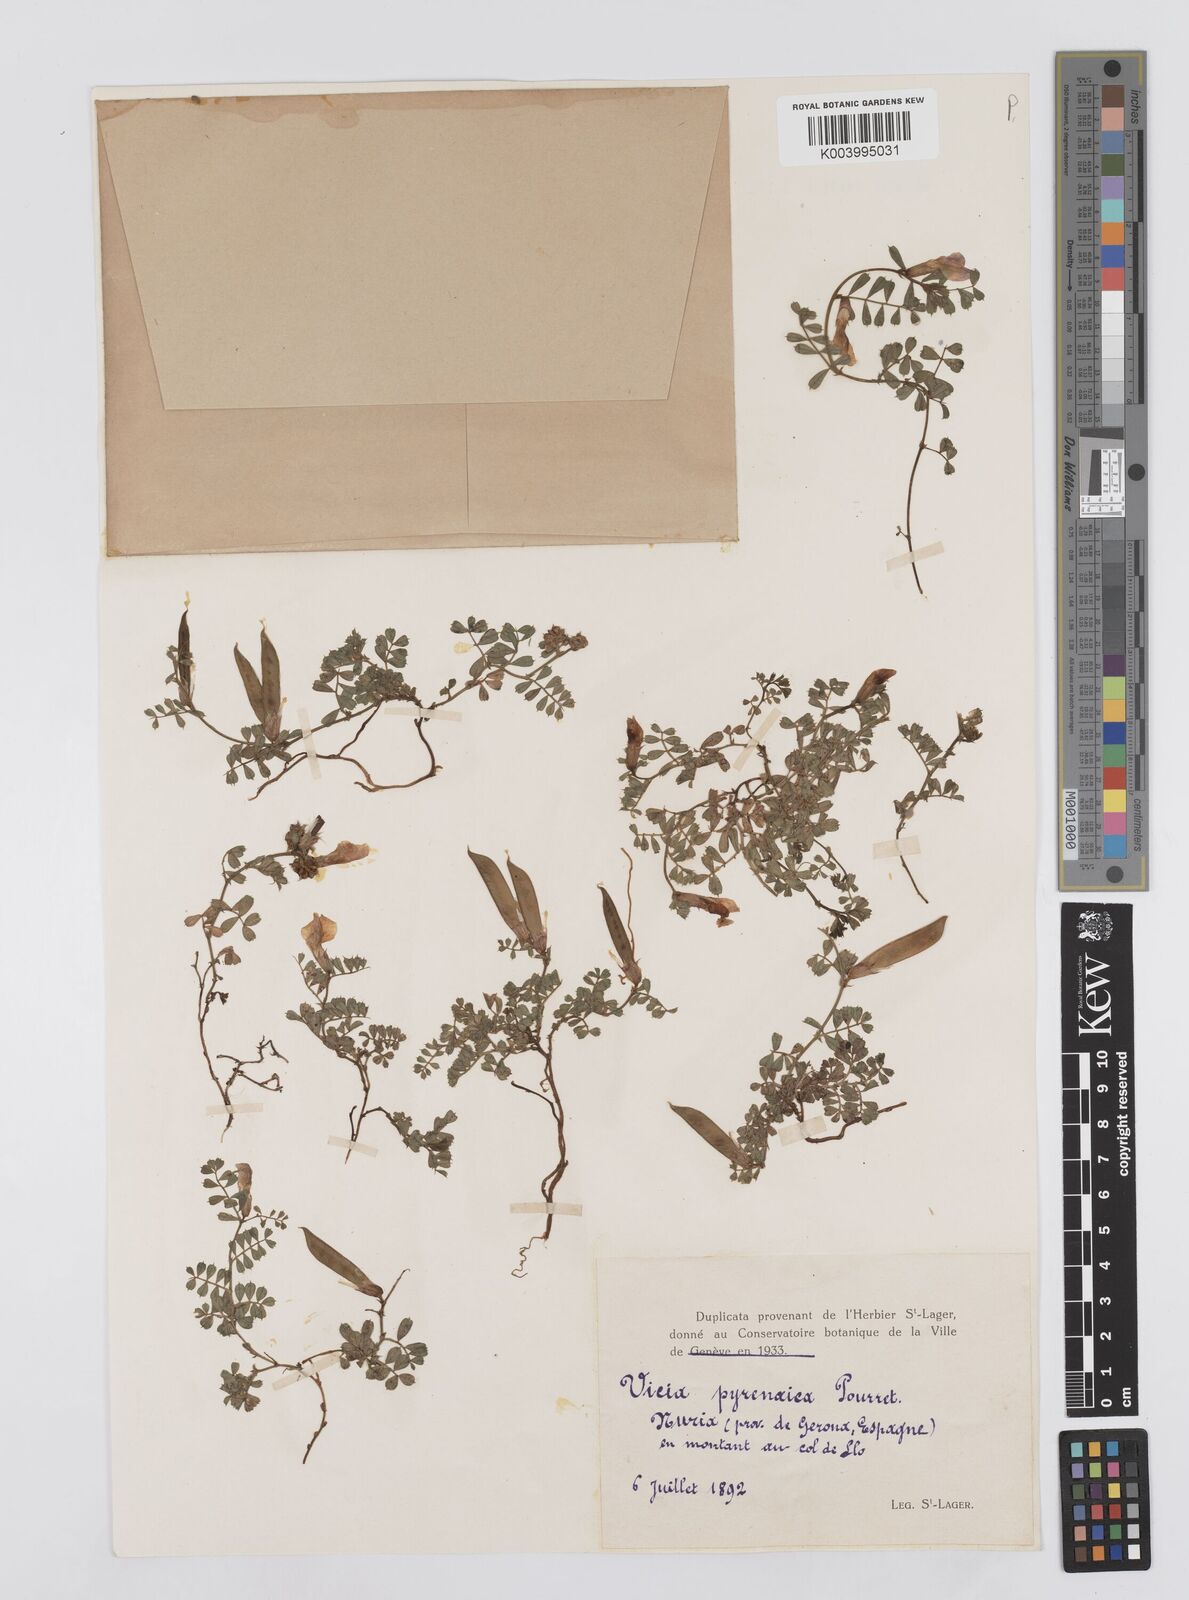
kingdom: Plantae
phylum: Tracheophyta
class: Magnoliopsida
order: Fabales
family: Fabaceae
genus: Vicia
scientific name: Vicia pyrenaica
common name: Pyrenean vetch
